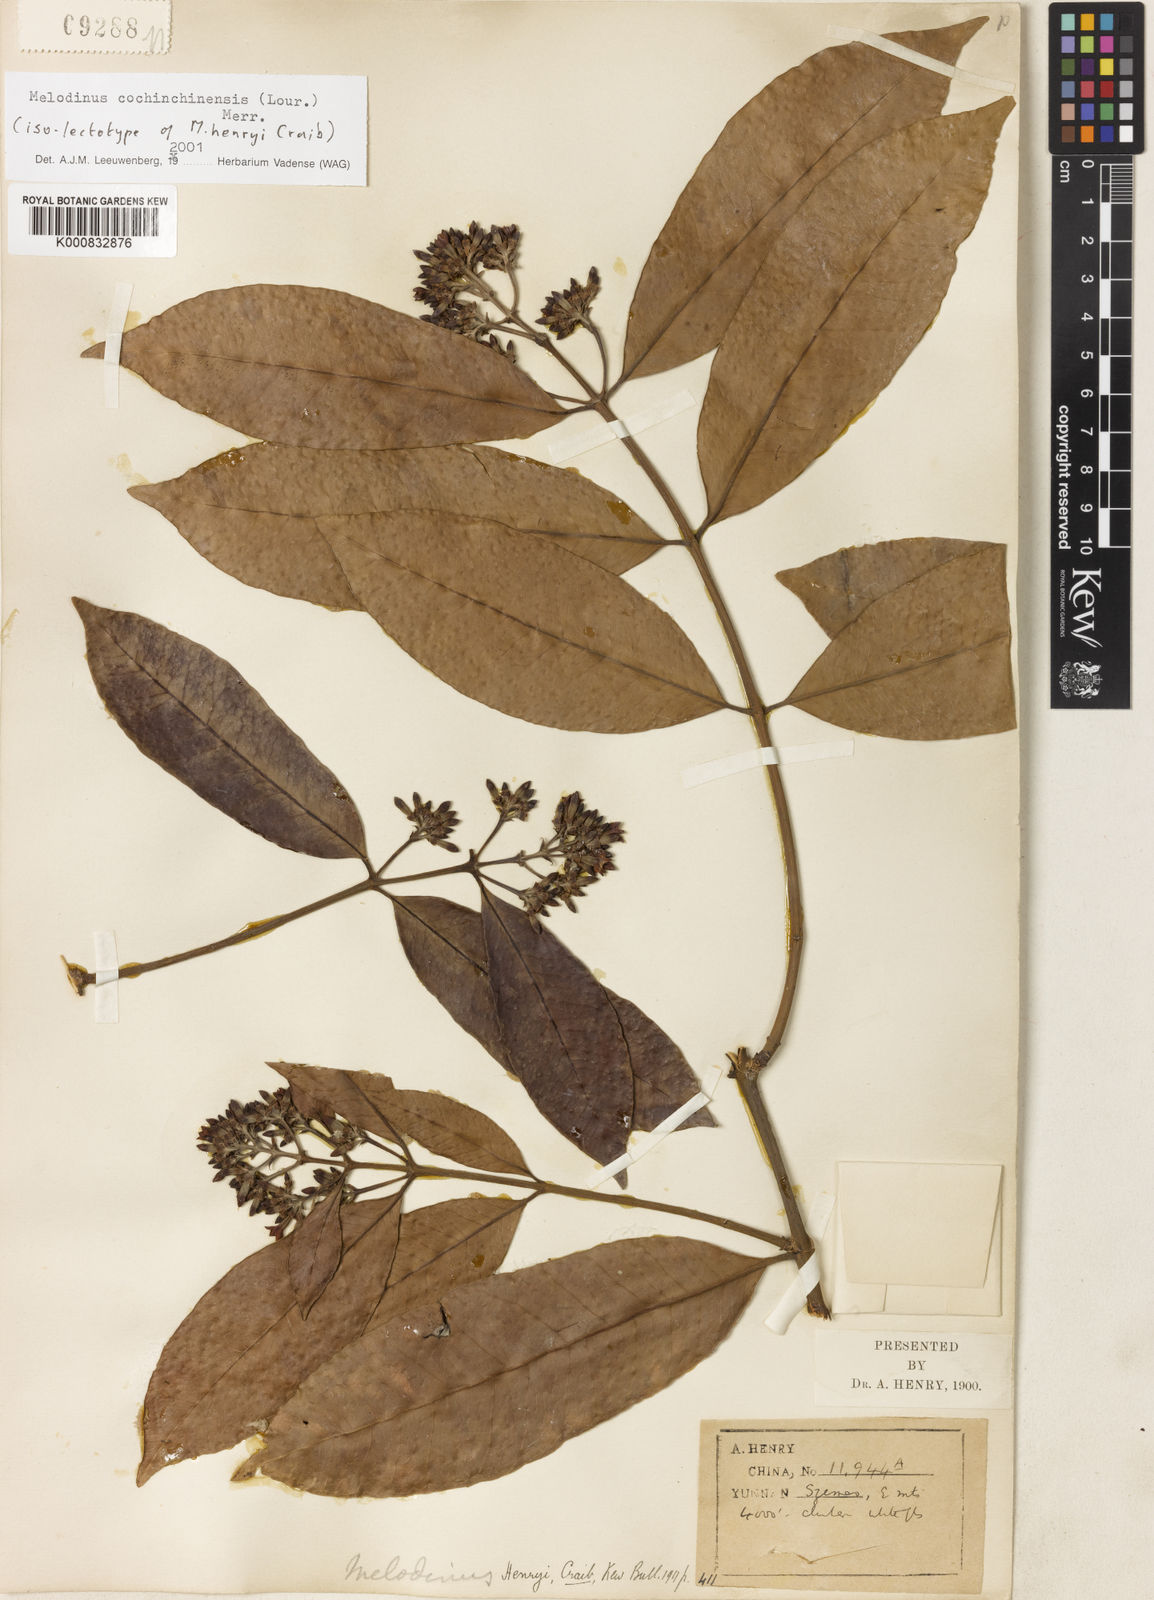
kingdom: Plantae
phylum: Tracheophyta
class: Magnoliopsida
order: Gentianales
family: Apocynaceae
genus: Melodinus
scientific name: Melodinus cochinchinensis
